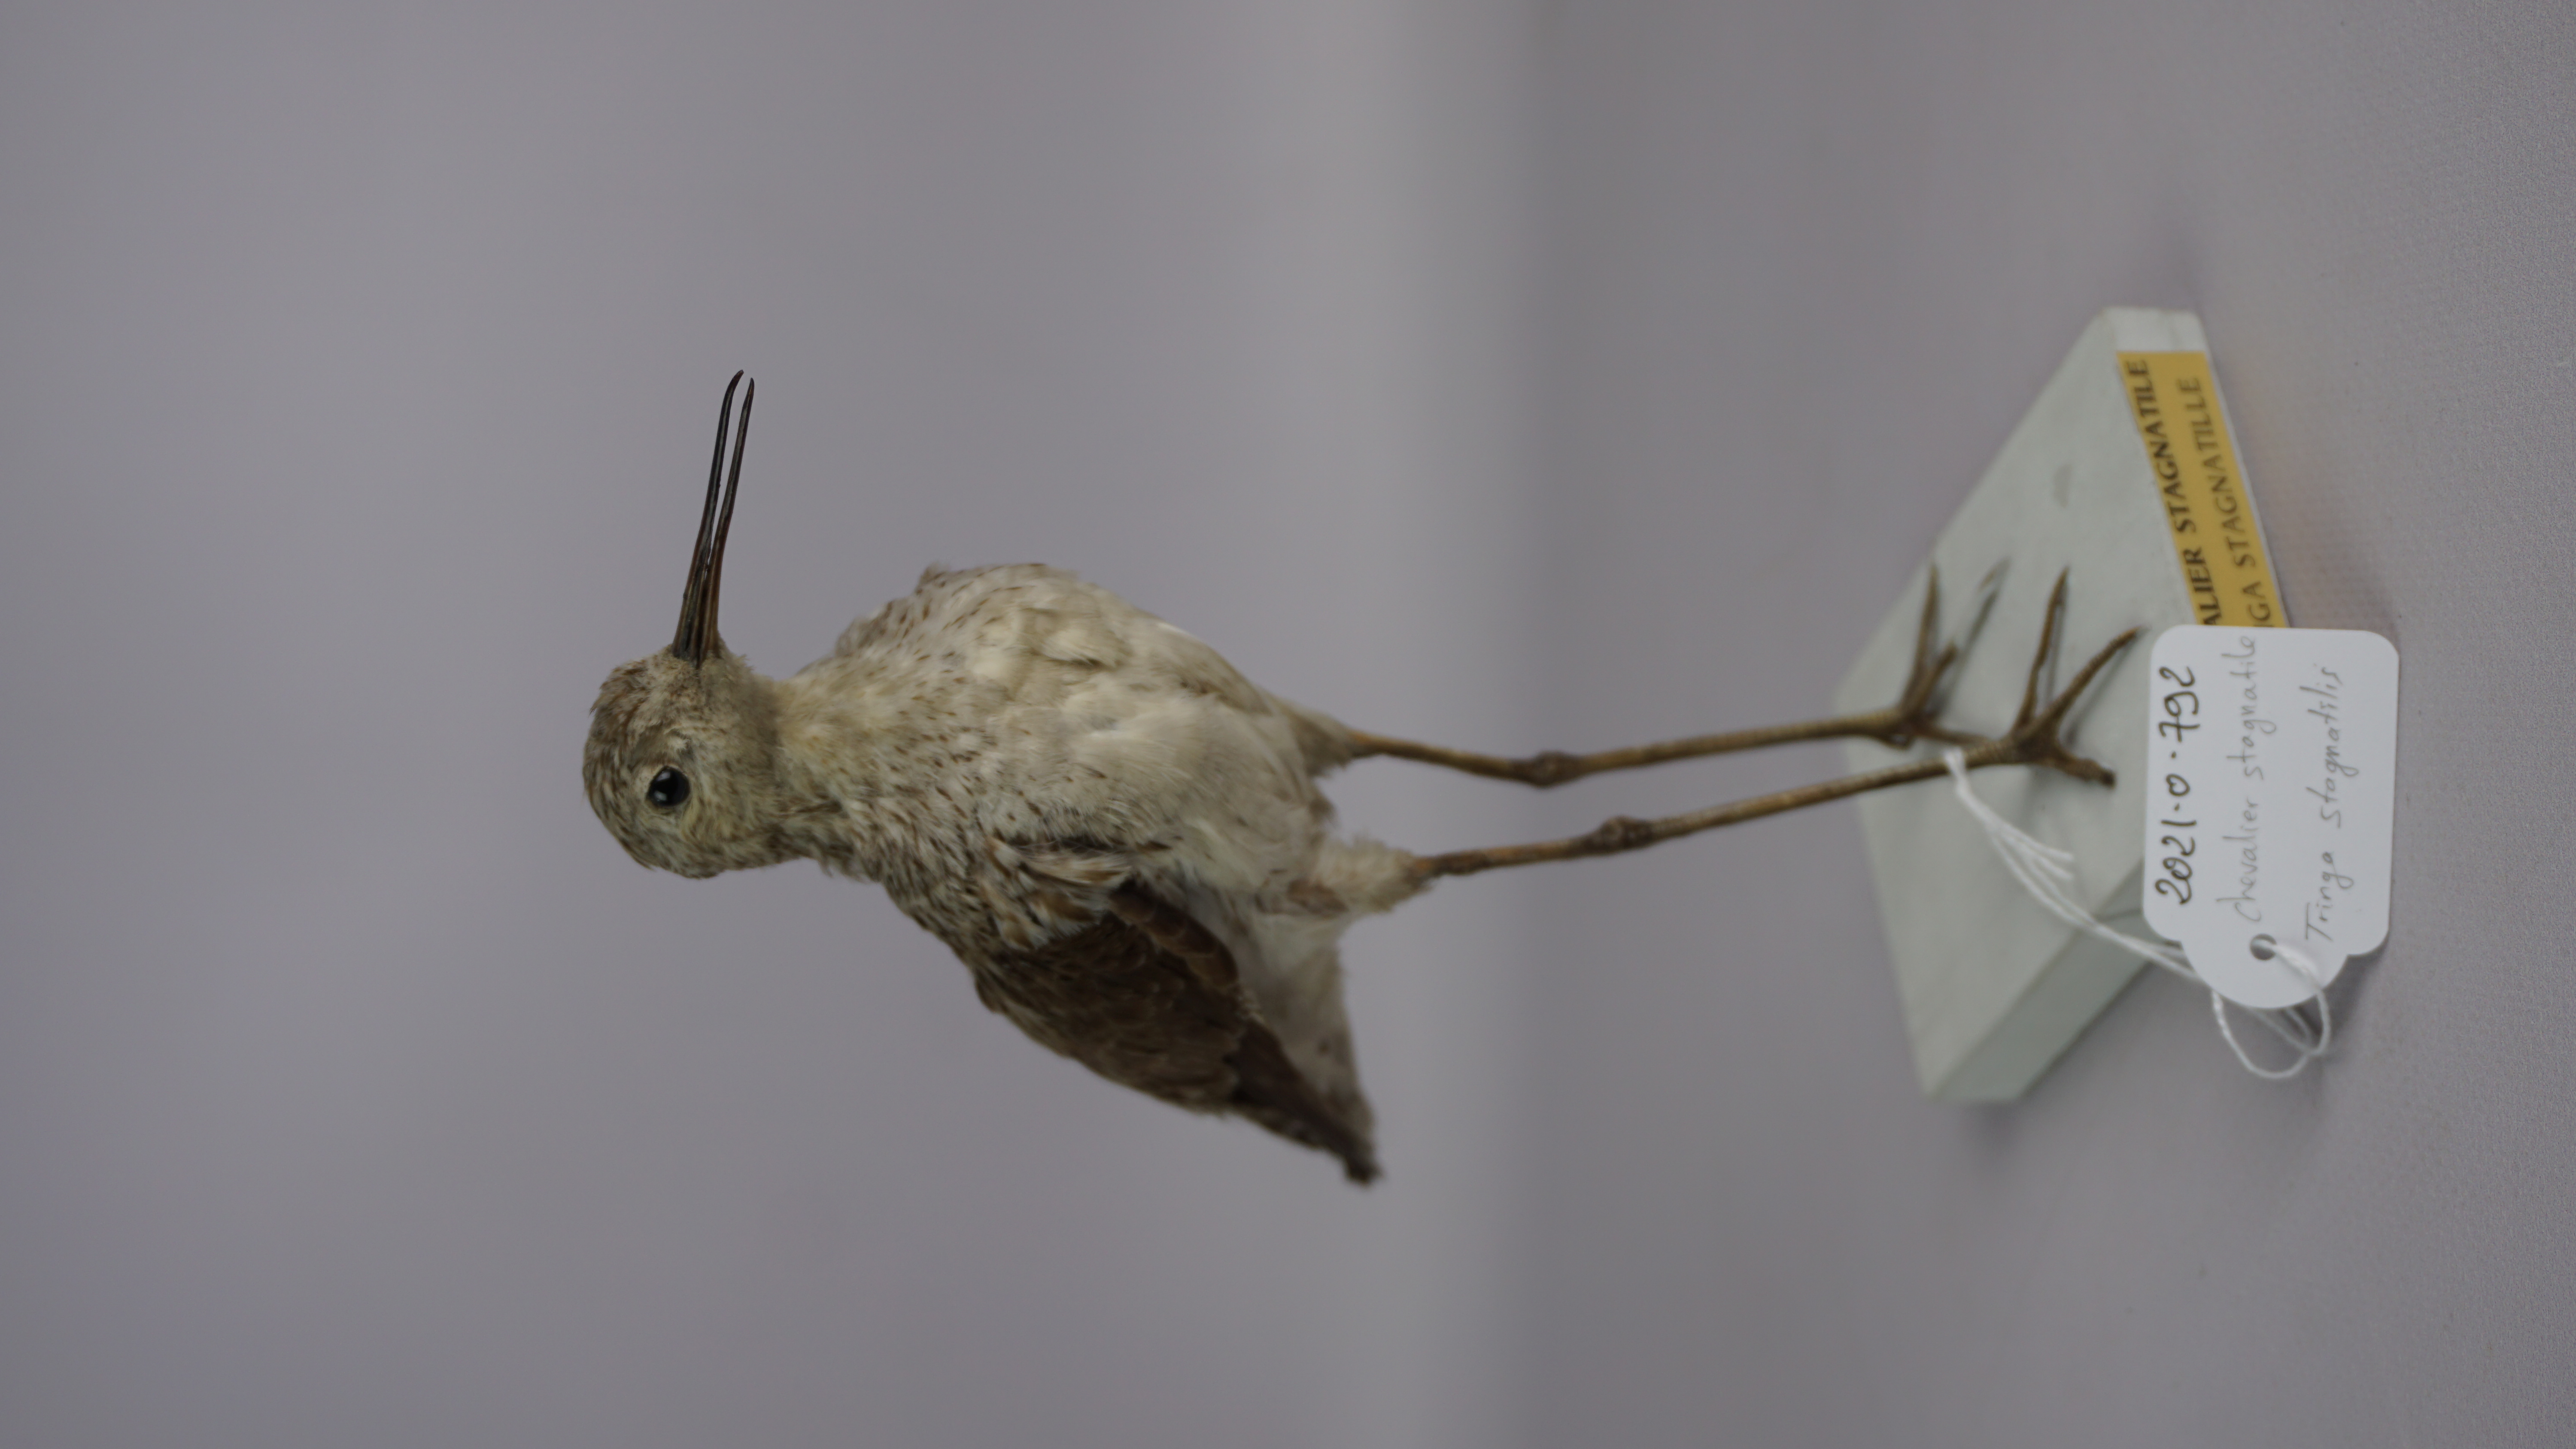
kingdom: Animalia
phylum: Chordata
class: Aves
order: Charadriiformes
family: Scolopacidae
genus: Tringa
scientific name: Tringa stagnatilis
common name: Marsh sandpiper
